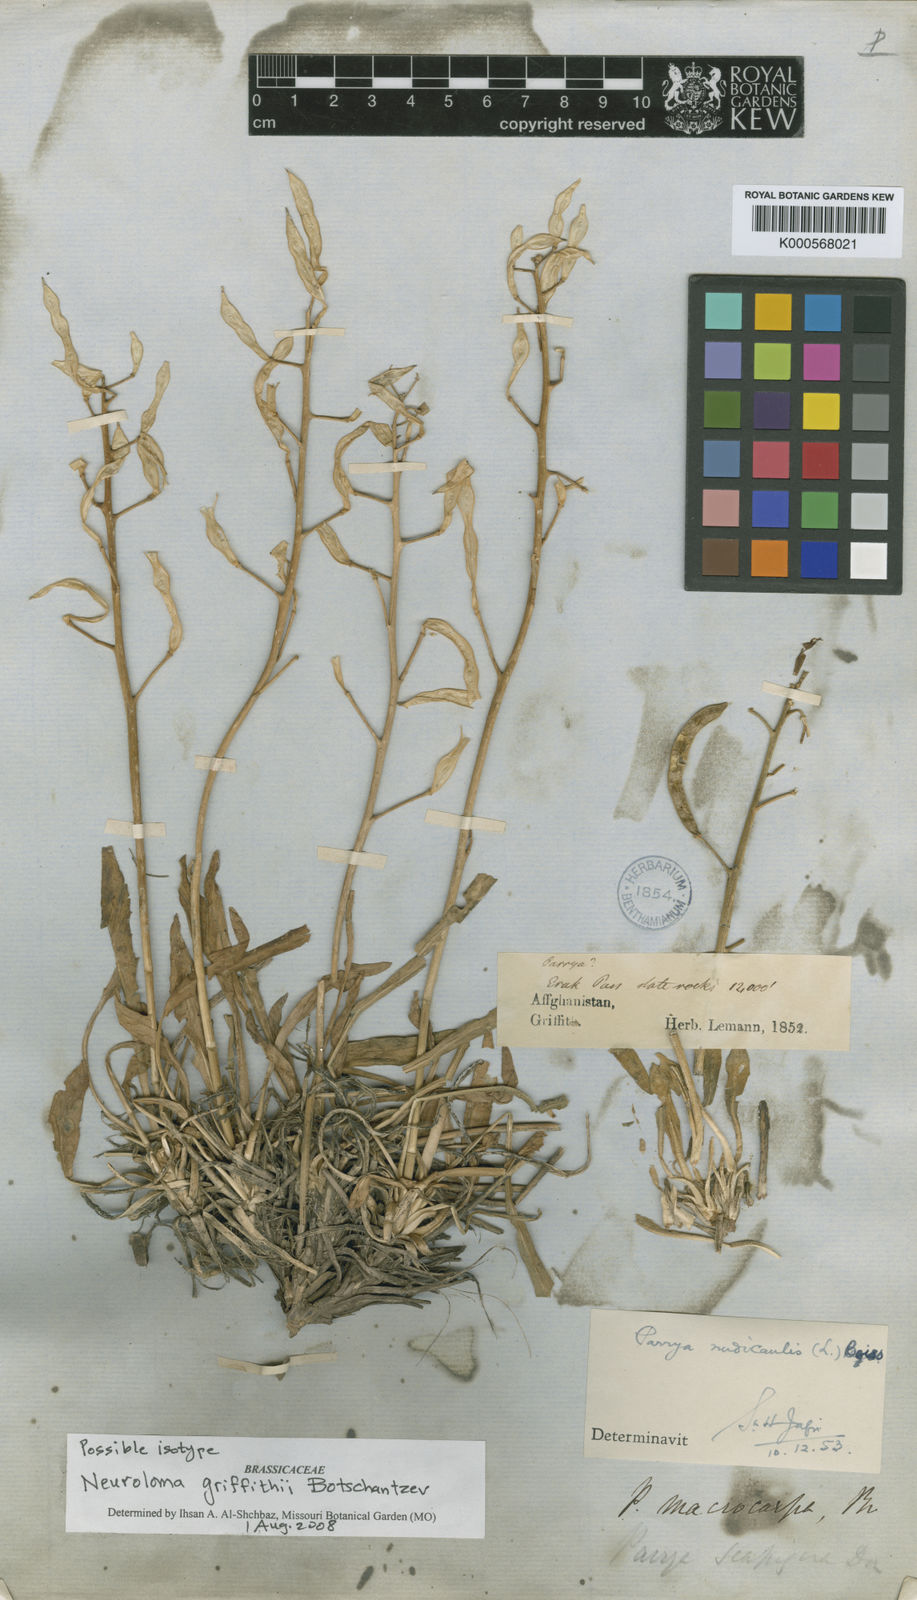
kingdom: Plantae
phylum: Tracheophyta
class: Magnoliopsida
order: Brassicales
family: Brassicaceae
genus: Parrya
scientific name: Parrya
